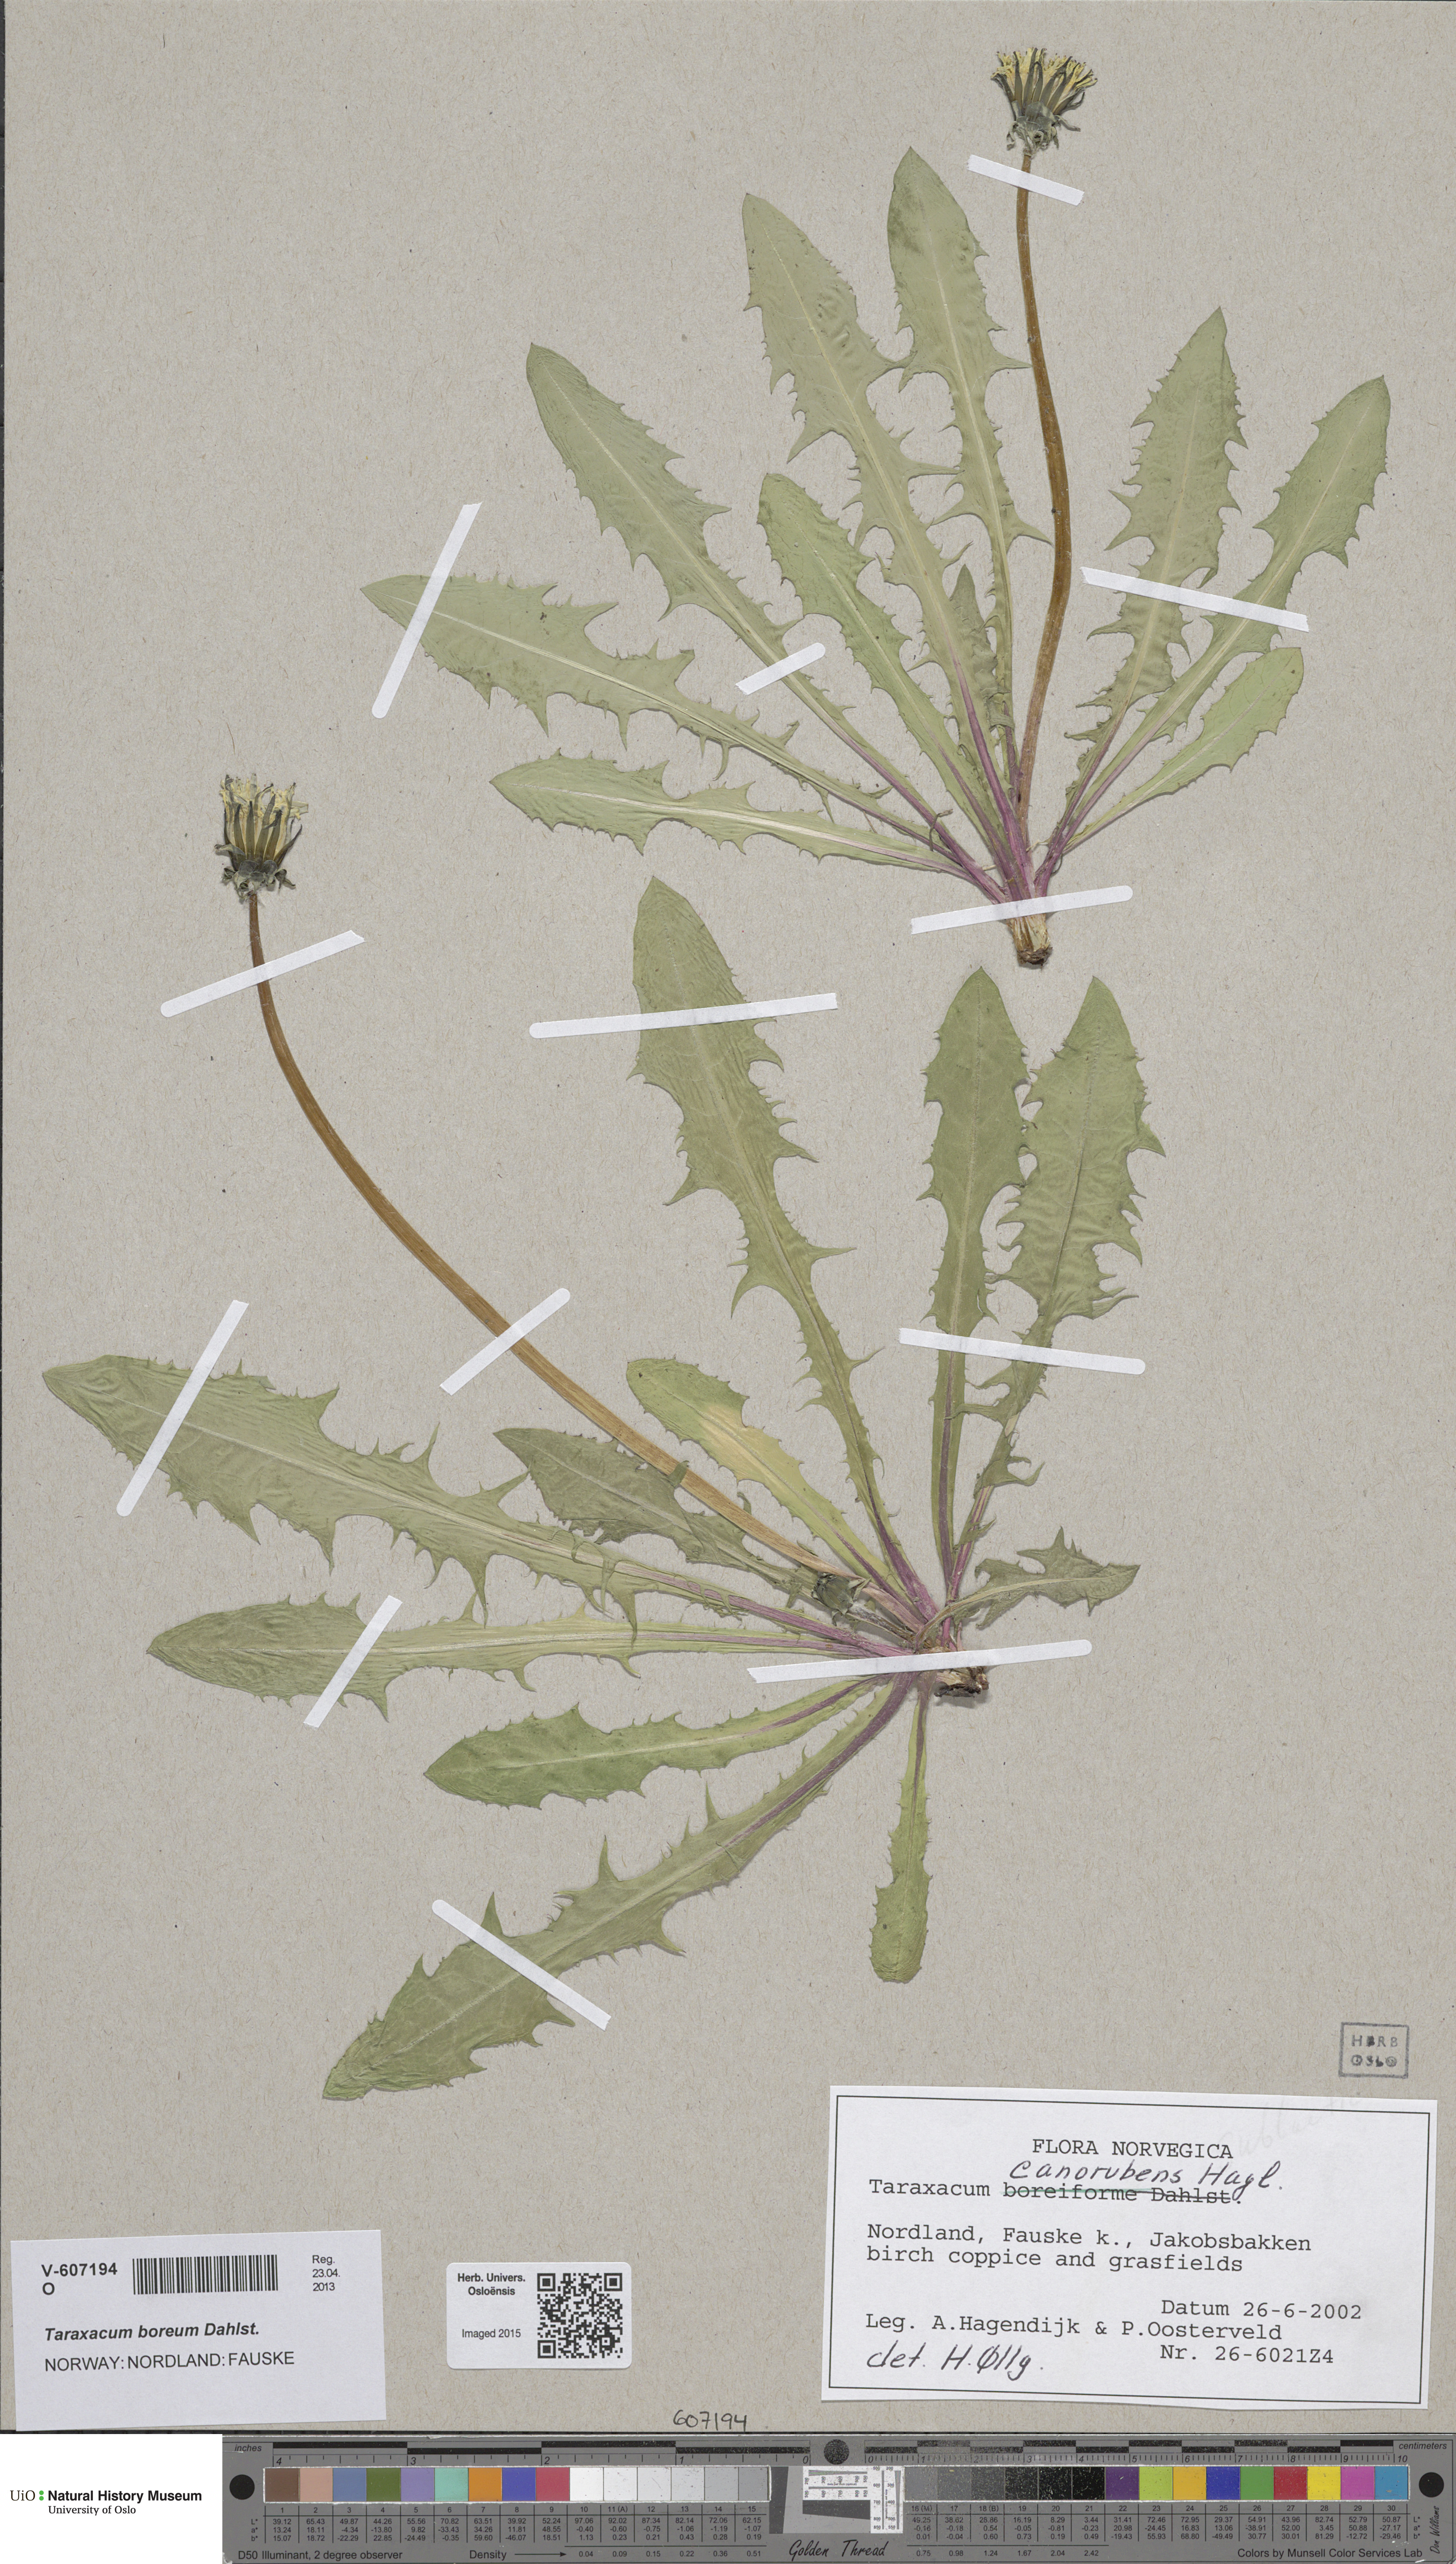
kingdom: Plantae
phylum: Tracheophyta
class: Magnoliopsida
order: Asterales
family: Asteraceae
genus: Taraxacum
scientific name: Taraxacum septentrionale
